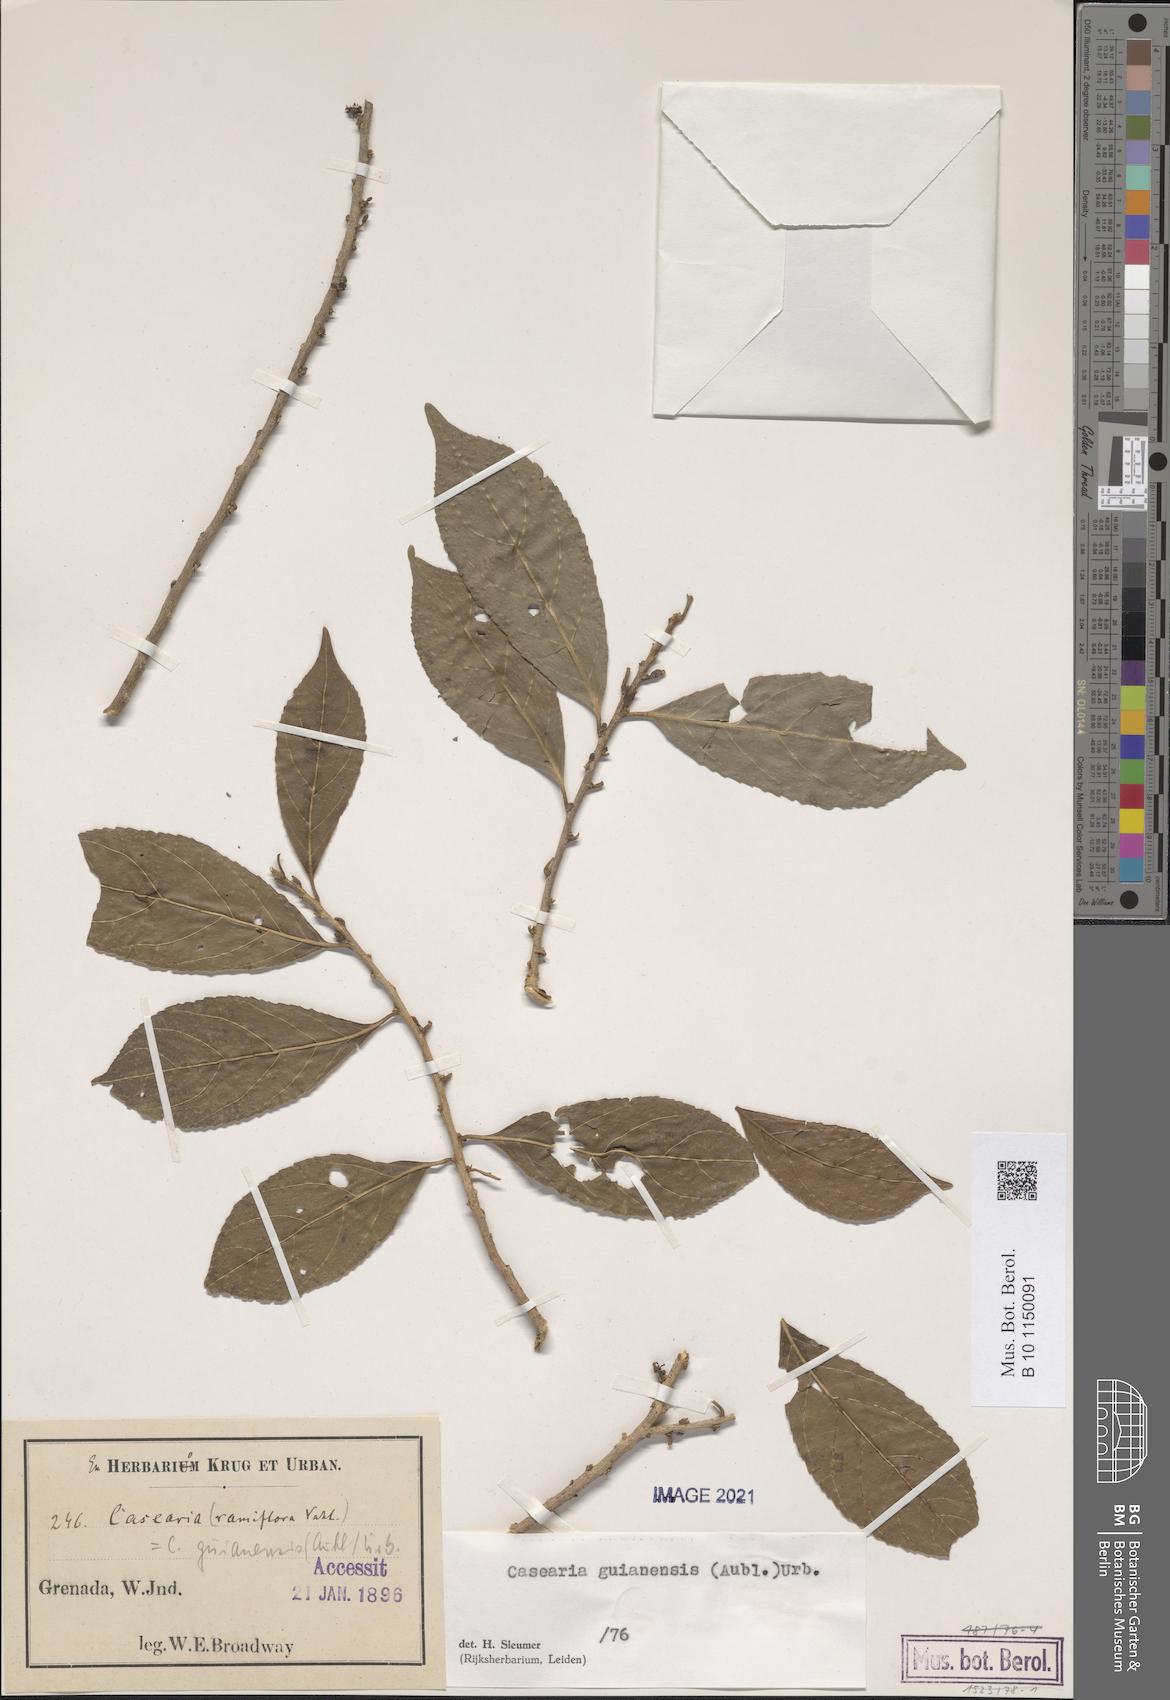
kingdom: Plantae
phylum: Tracheophyta
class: Magnoliopsida
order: Malpighiales
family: Salicaceae
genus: Casearia
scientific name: Casearia guianensis
